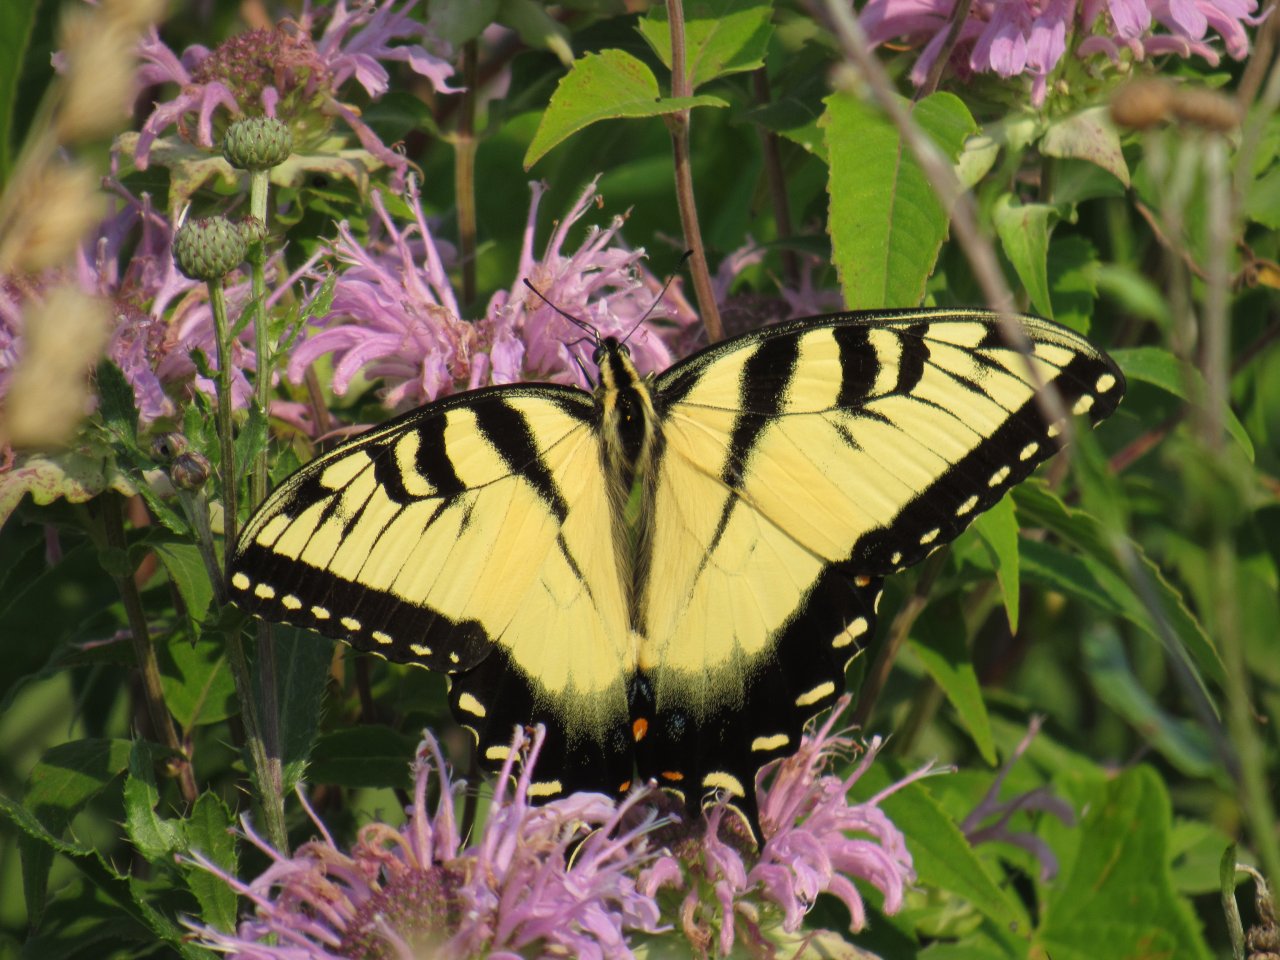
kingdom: Animalia
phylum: Arthropoda
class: Insecta
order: Lepidoptera
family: Papilionidae
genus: Pterourus
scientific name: Pterourus glaucus
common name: Eastern Tiger Swallowtail
